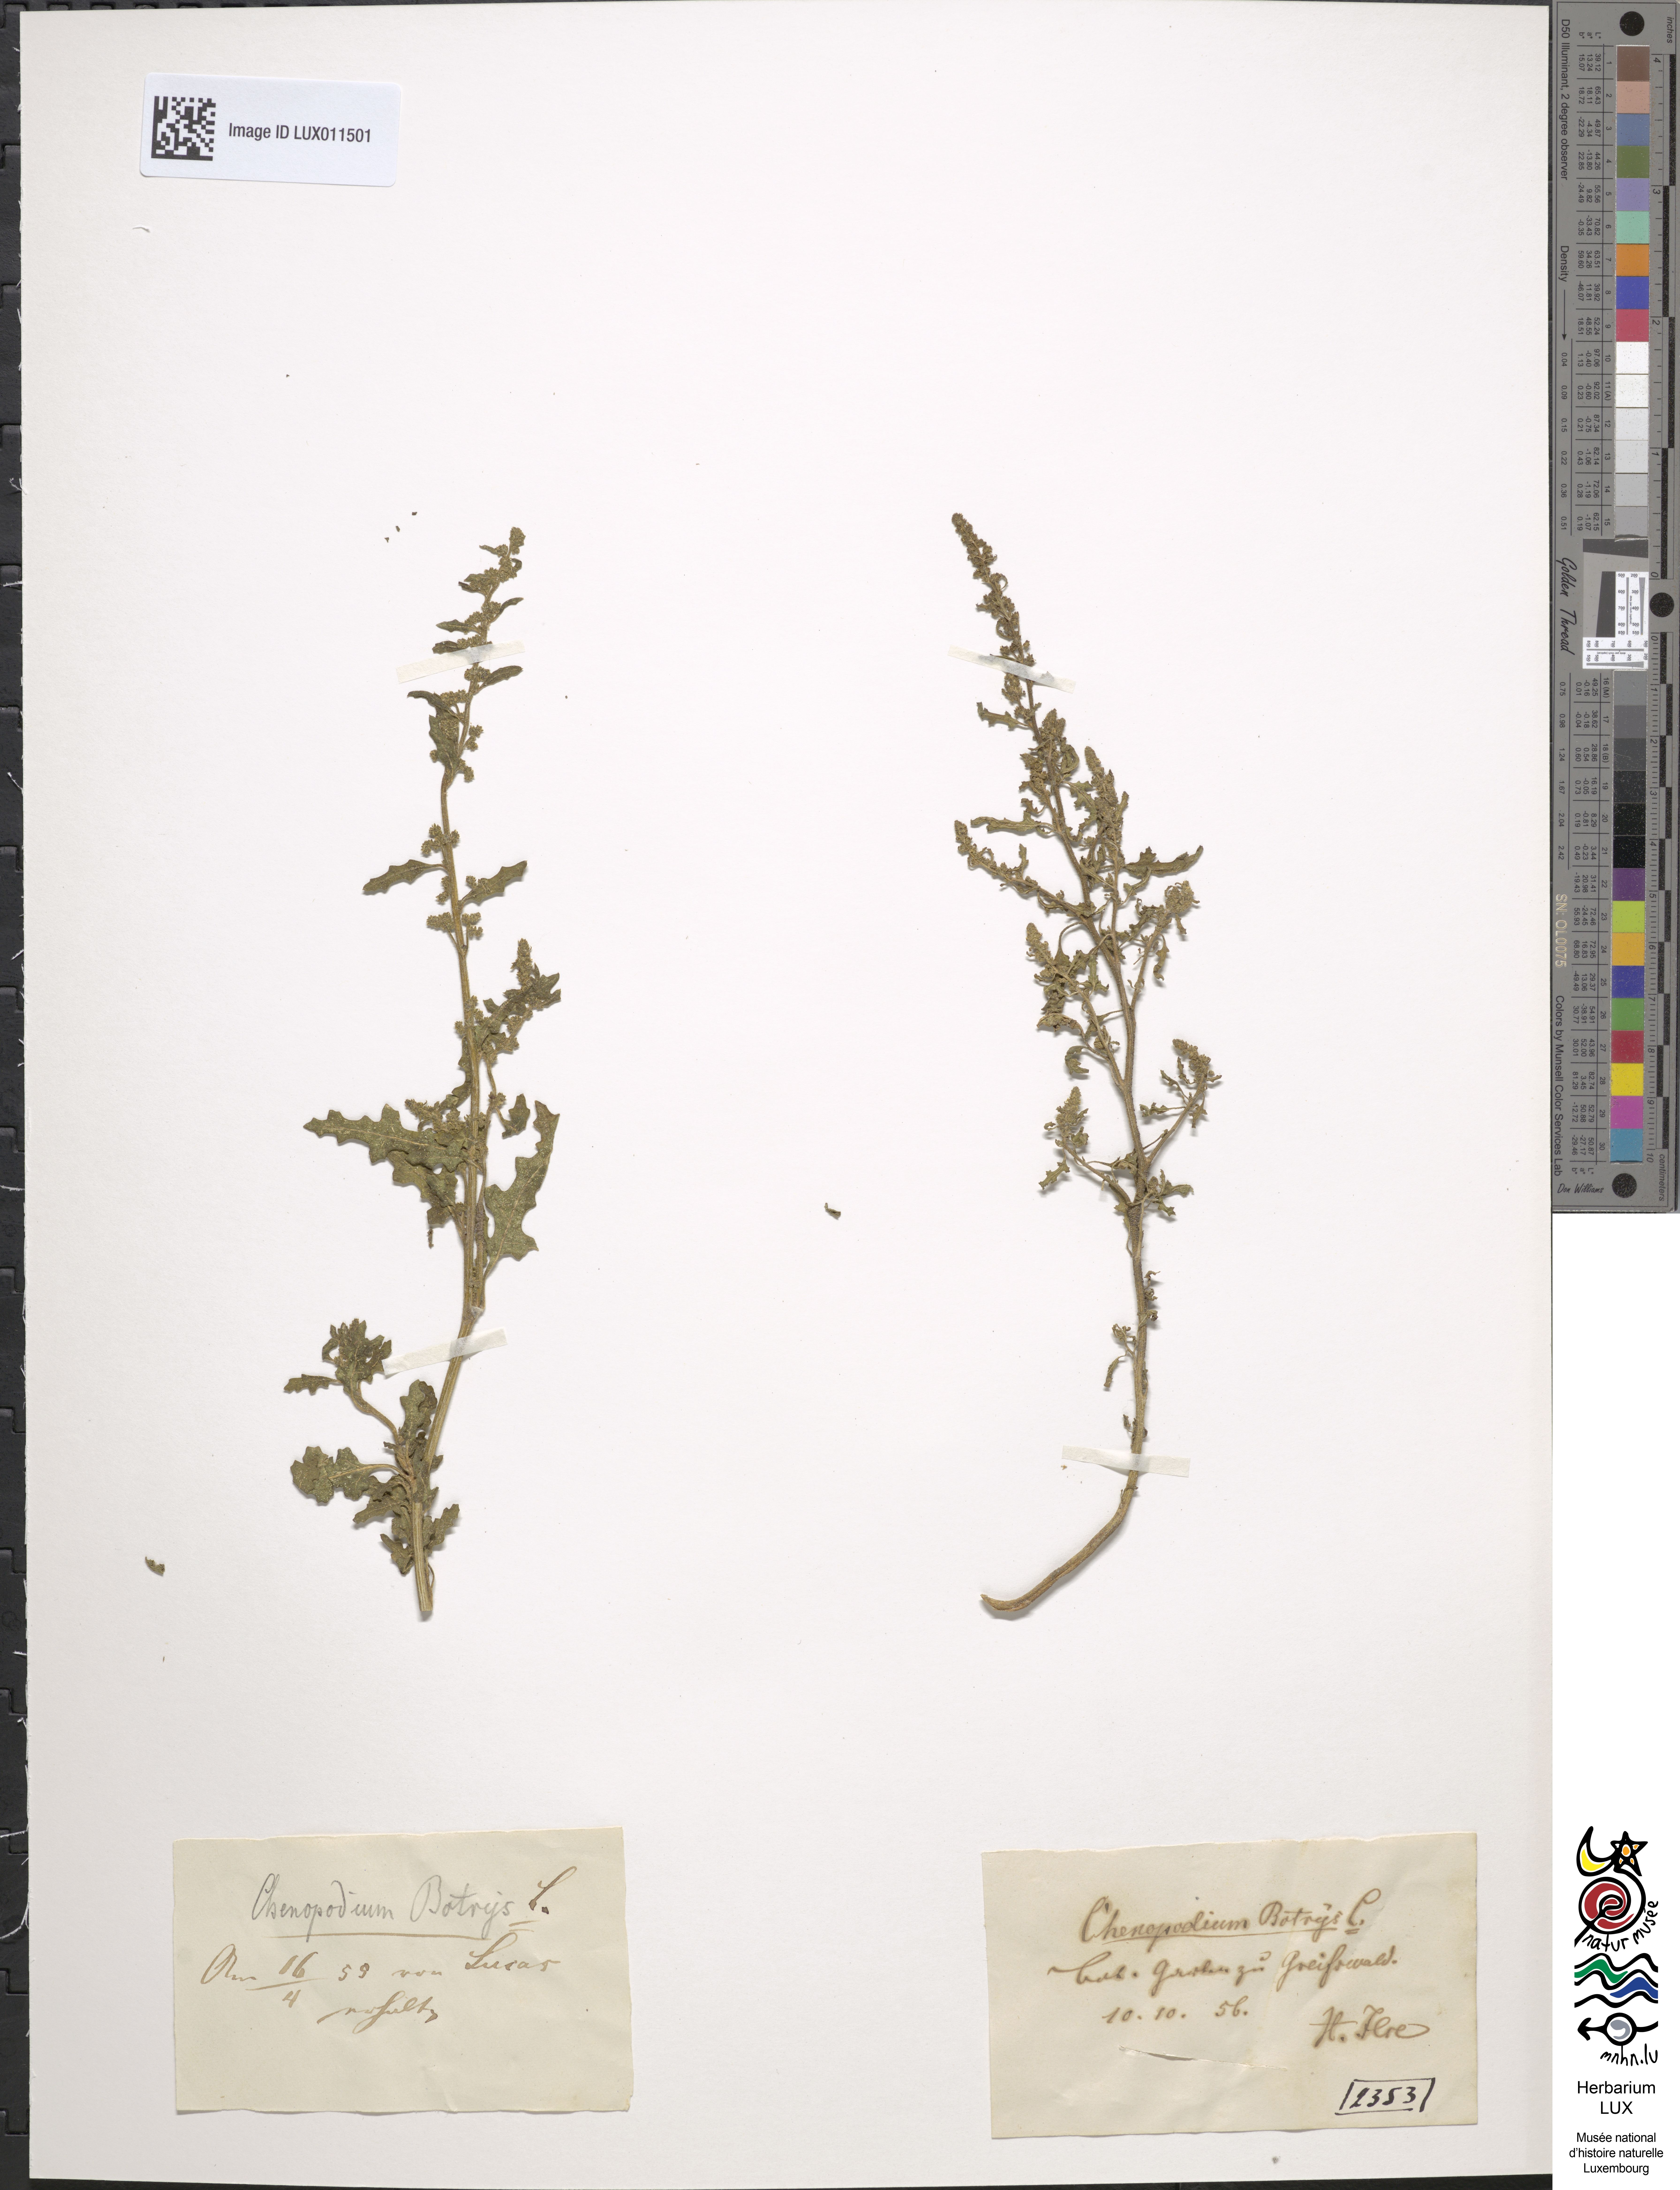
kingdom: Plantae
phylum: Tracheophyta
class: Magnoliopsida
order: Caryophyllales
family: Amaranthaceae
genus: Dysphania
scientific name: Dysphania botrys
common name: Feather-geranium
